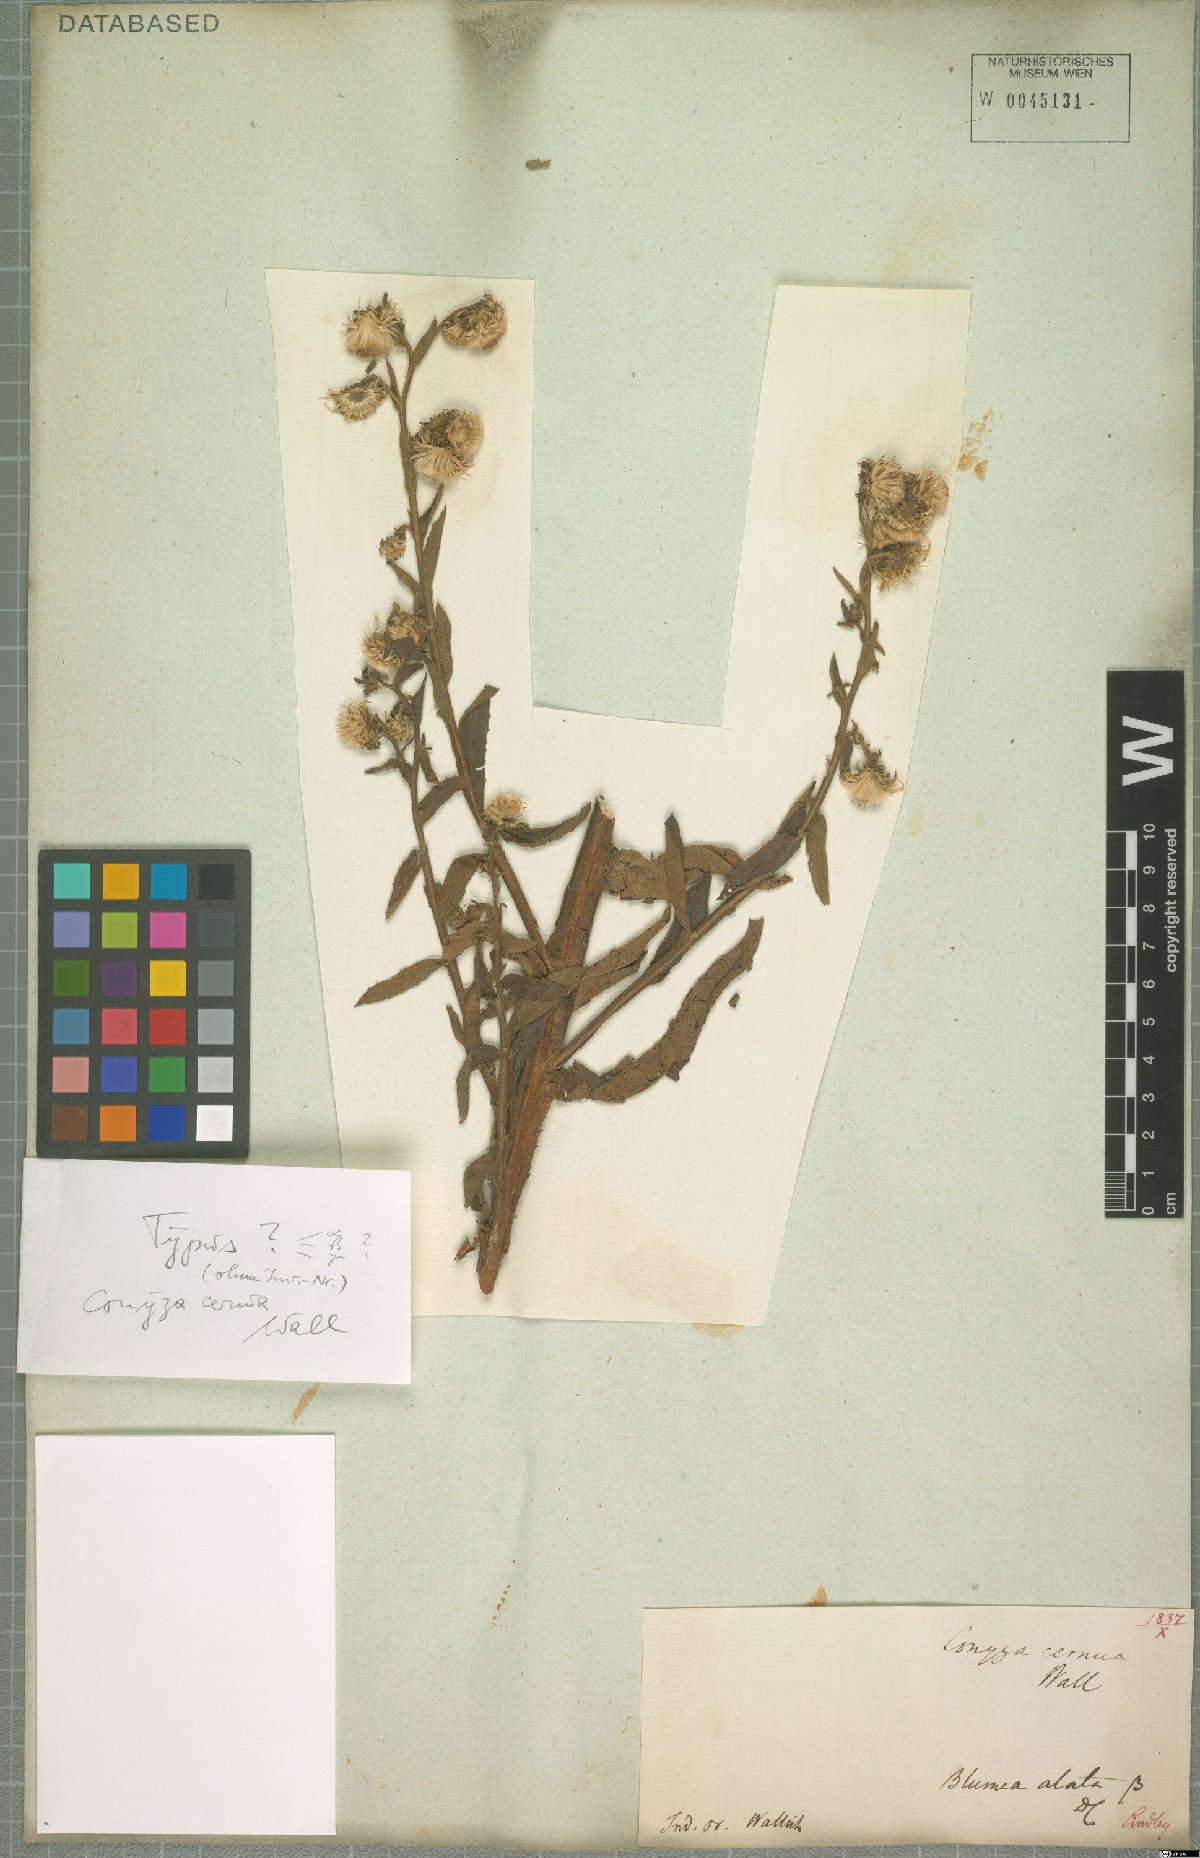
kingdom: Plantae
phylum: Tracheophyta
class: Magnoliopsida
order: Asterales
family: Asteraceae
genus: Erigeron
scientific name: Erigeron Conyza cernua
